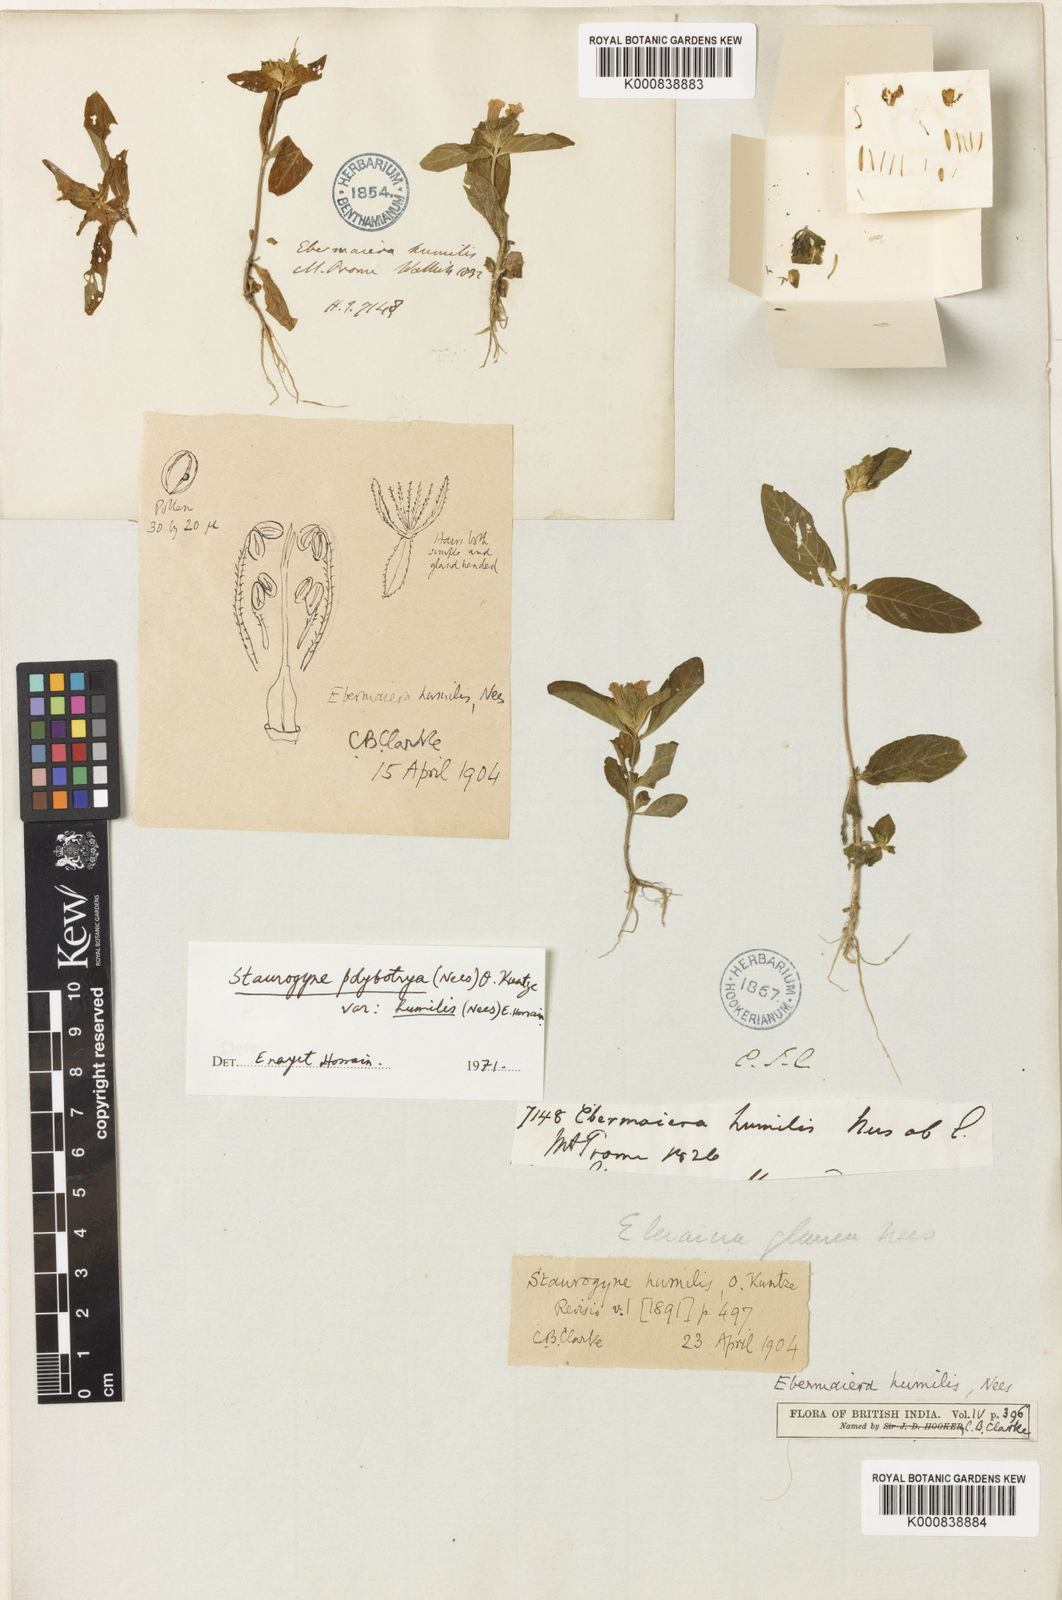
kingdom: Plantae
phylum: Tracheophyta
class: Magnoliopsida
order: Lamiales
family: Acanthaceae
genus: Staurogyne
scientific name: Staurogyne polybotrya
